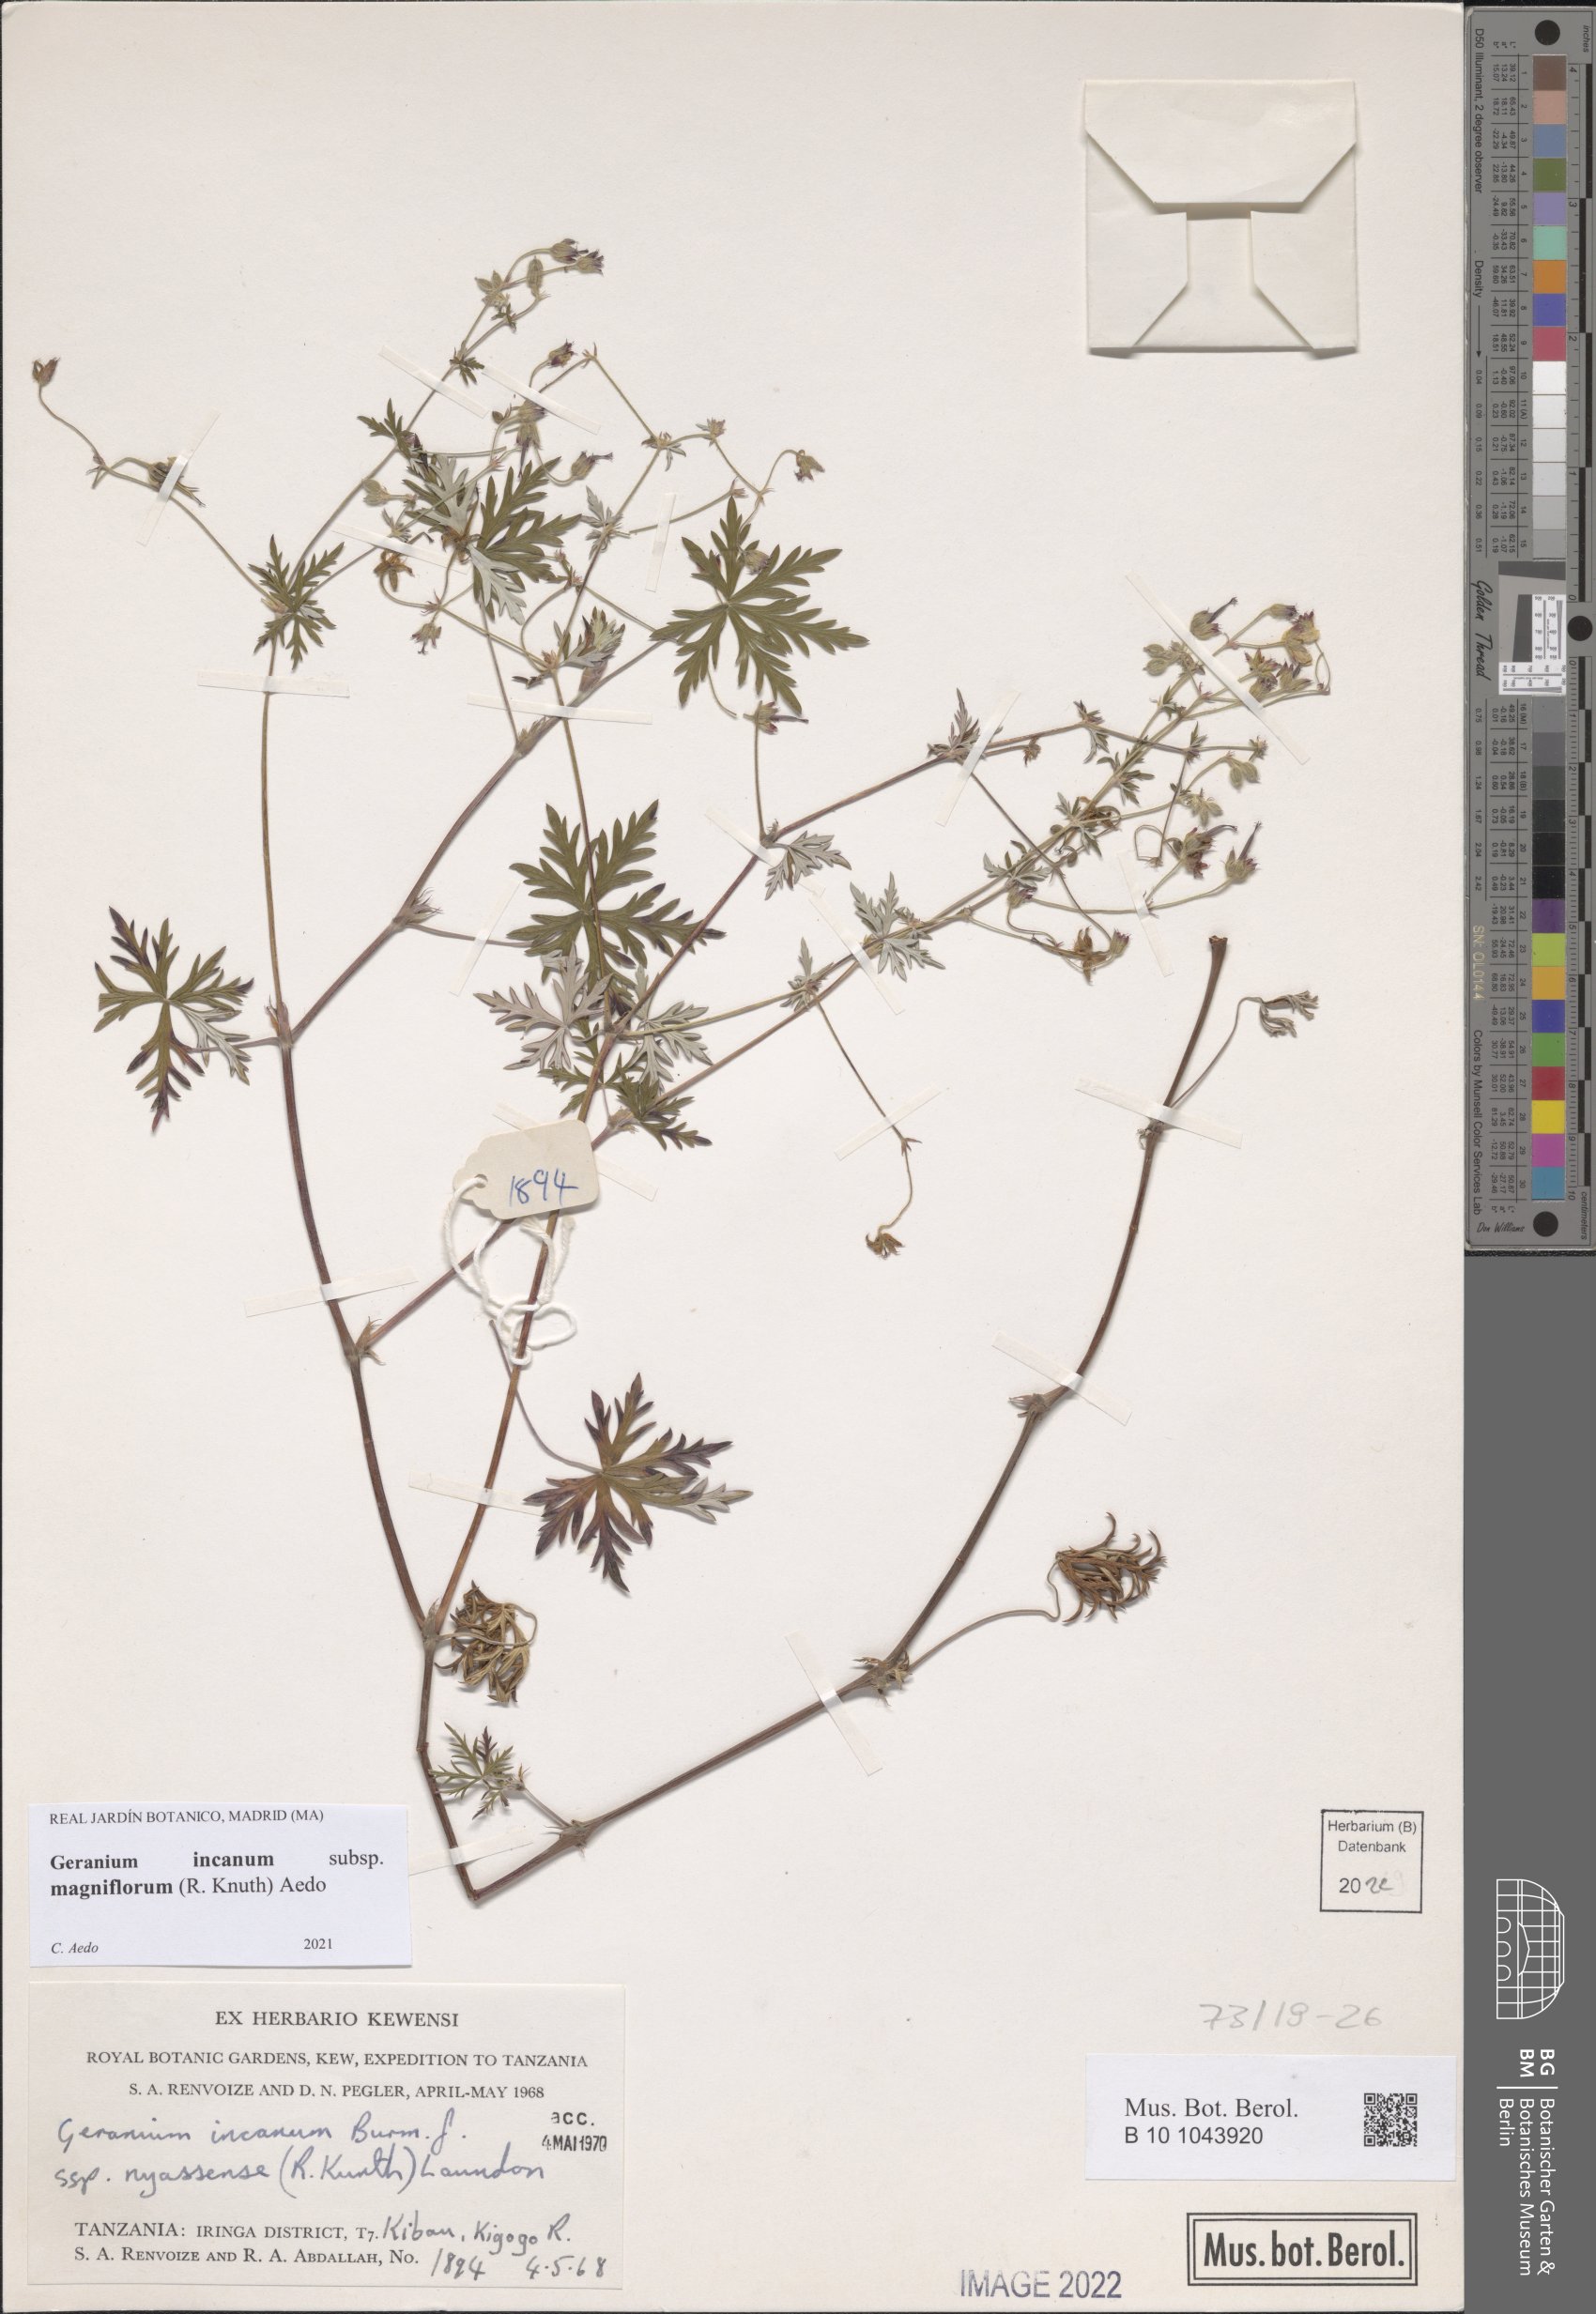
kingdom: Plantae
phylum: Tracheophyta
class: Magnoliopsida
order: Geraniales
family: Geraniaceae
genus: Geranium
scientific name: Geranium incanum
